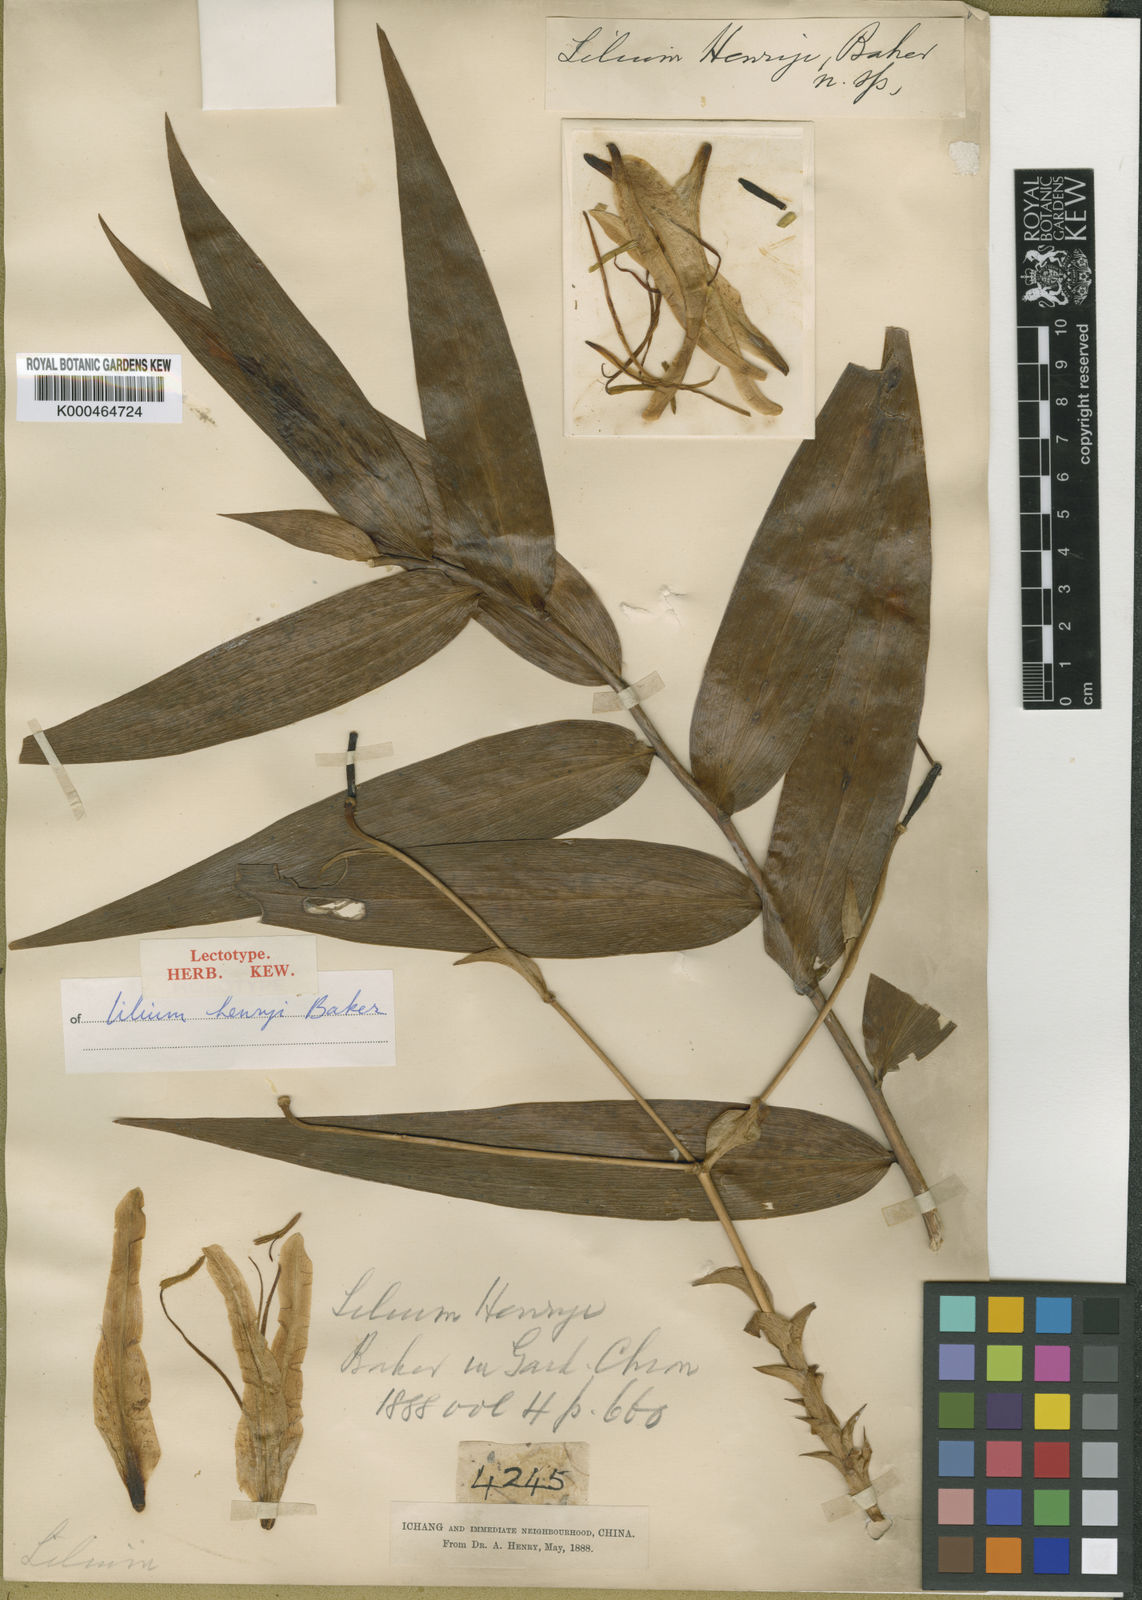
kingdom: Plantae
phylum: Tracheophyta
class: Liliopsida
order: Liliales
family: Liliaceae
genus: Lilium
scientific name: Lilium henryi
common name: Henry's lily
